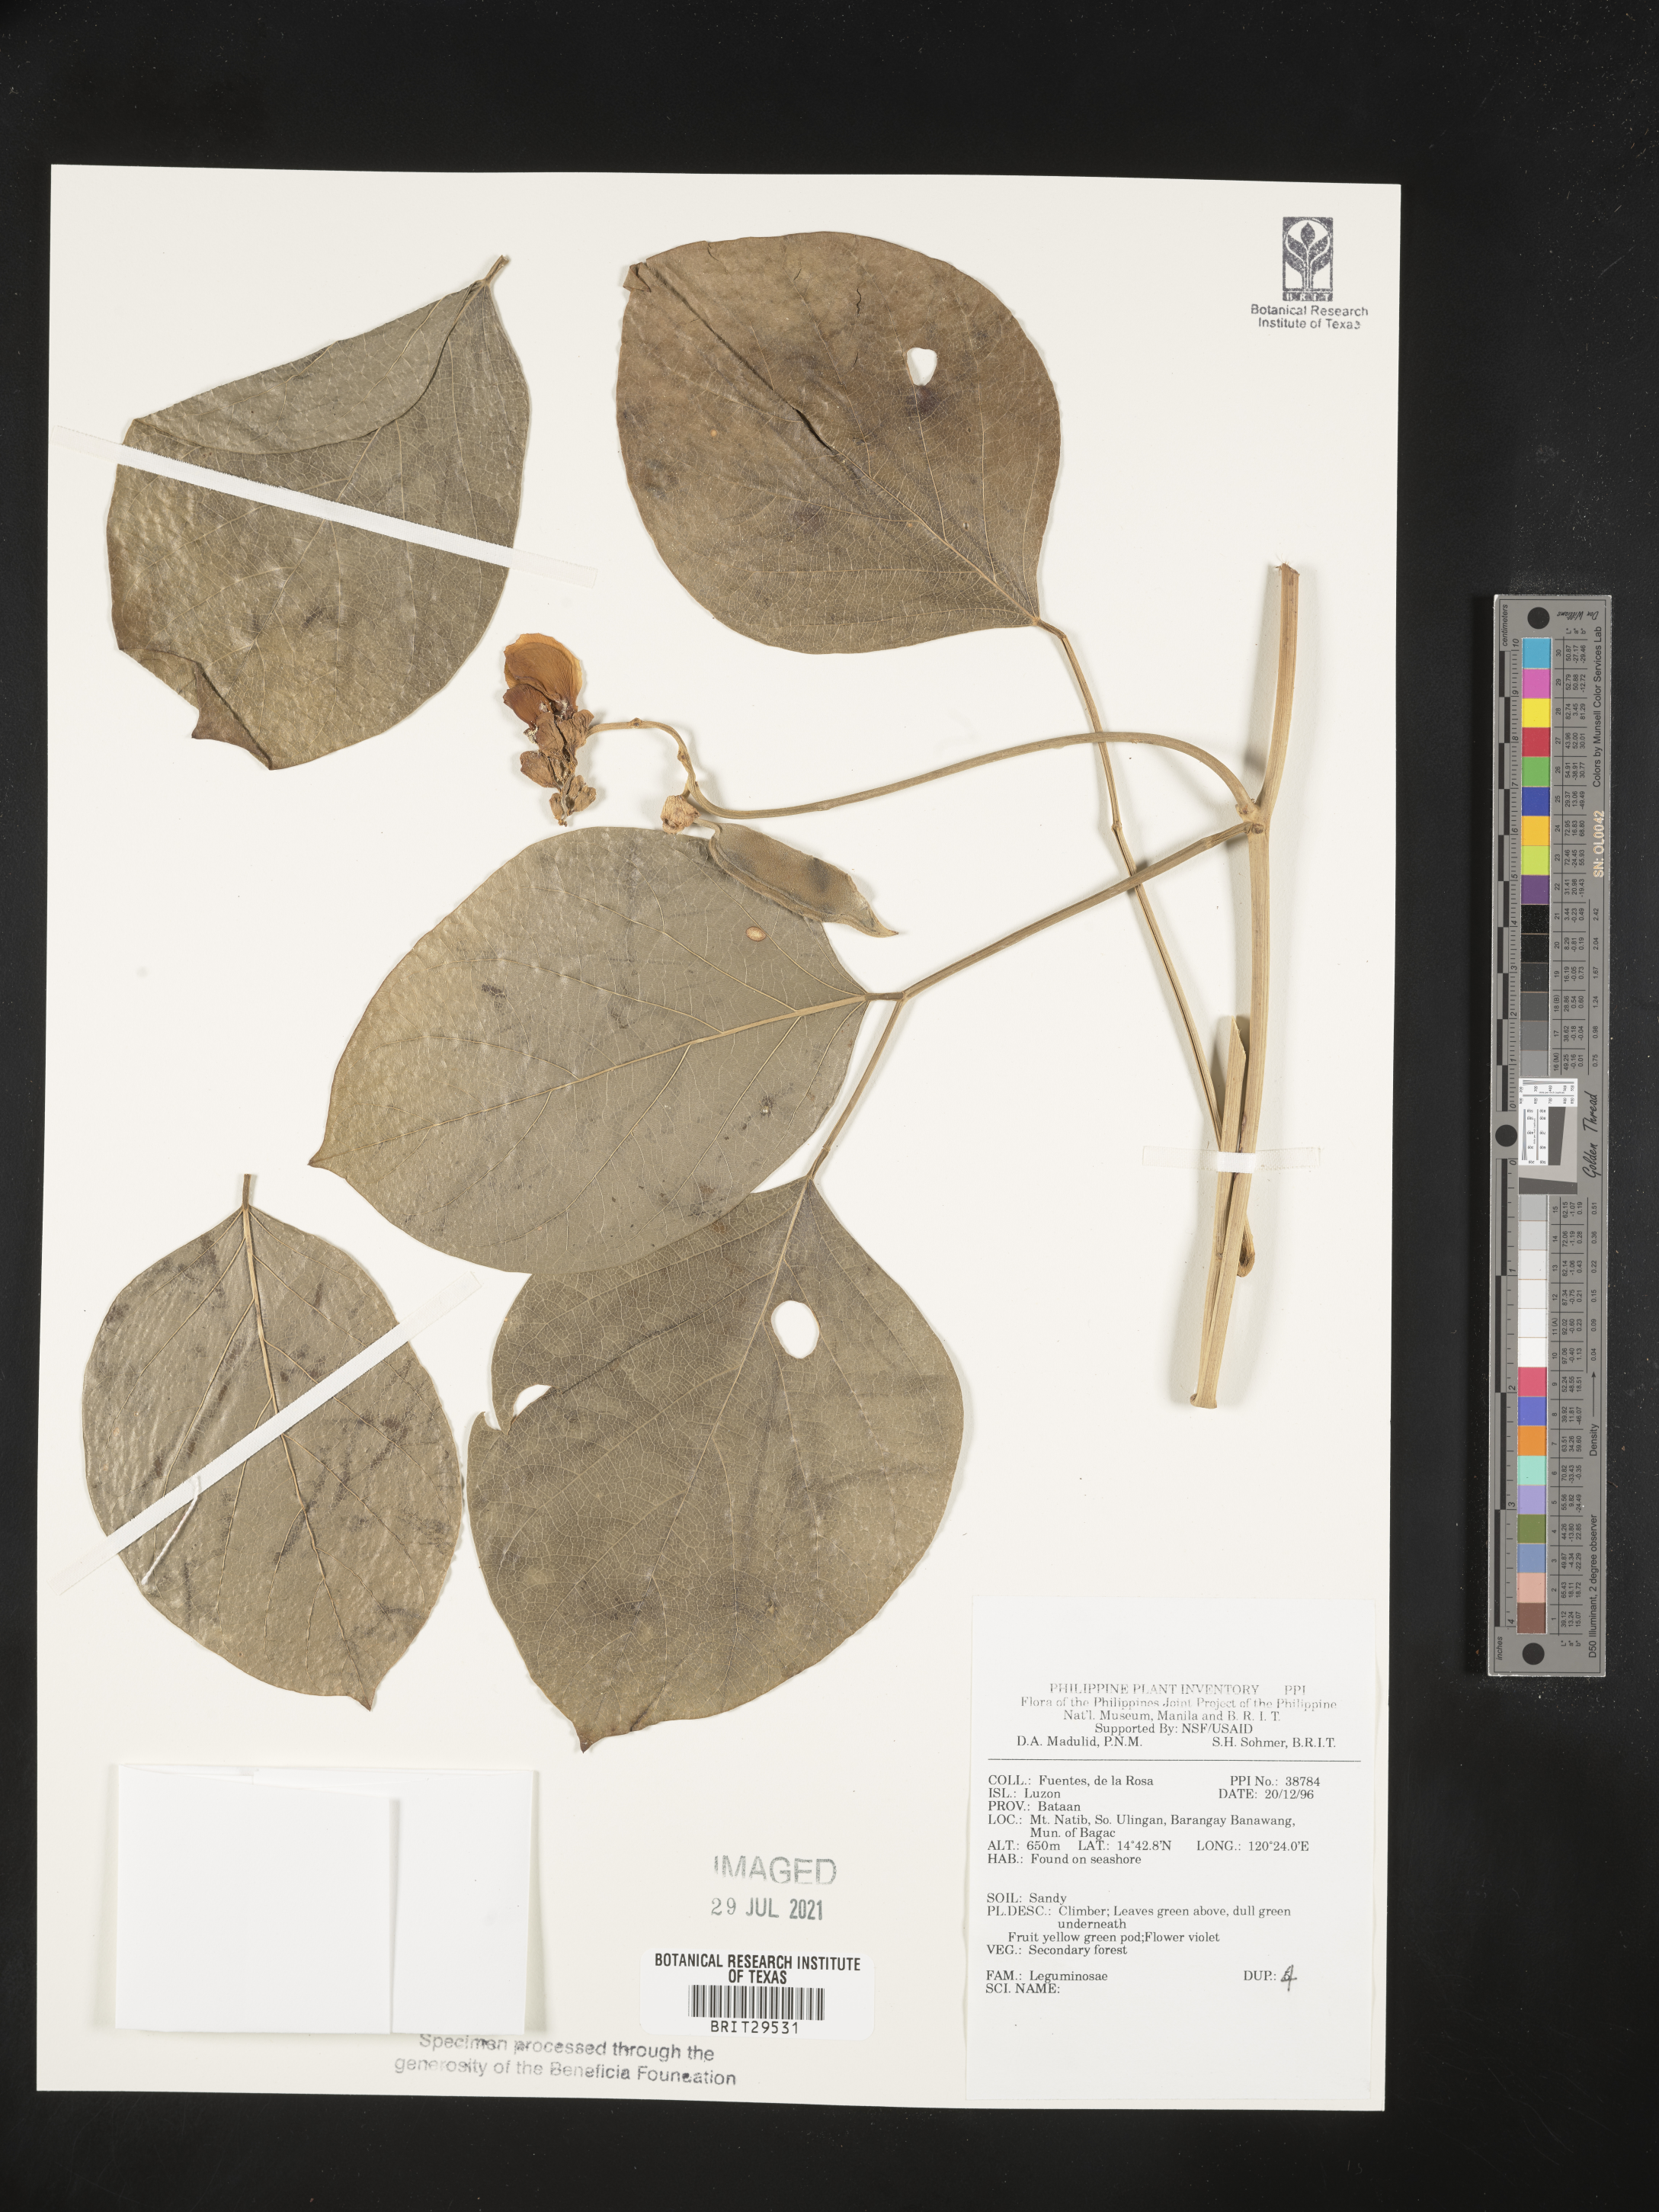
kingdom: Plantae
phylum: Tracheophyta
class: Magnoliopsida
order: Fabales
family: Fabaceae
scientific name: Fabaceae
